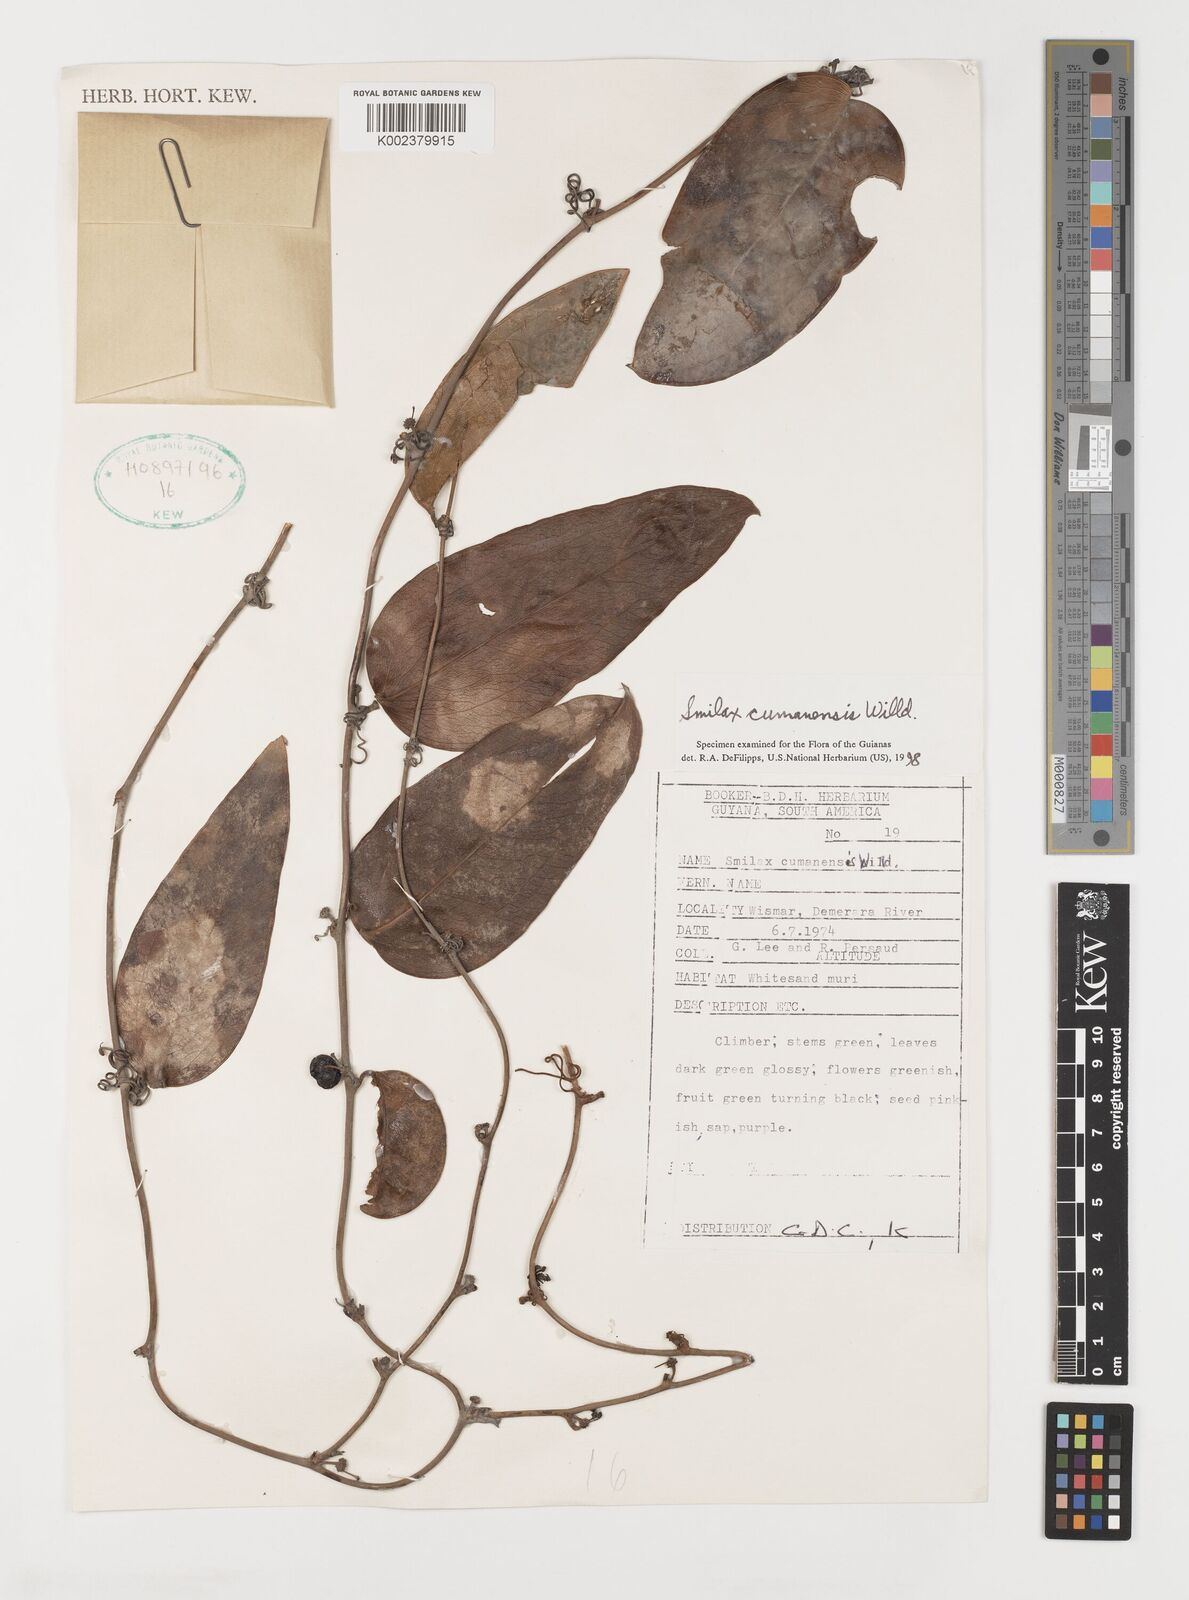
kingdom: Plantae
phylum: Tracheophyta
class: Liliopsida
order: Liliales
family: Smilacaceae
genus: Smilax
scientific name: Smilax oblongata
